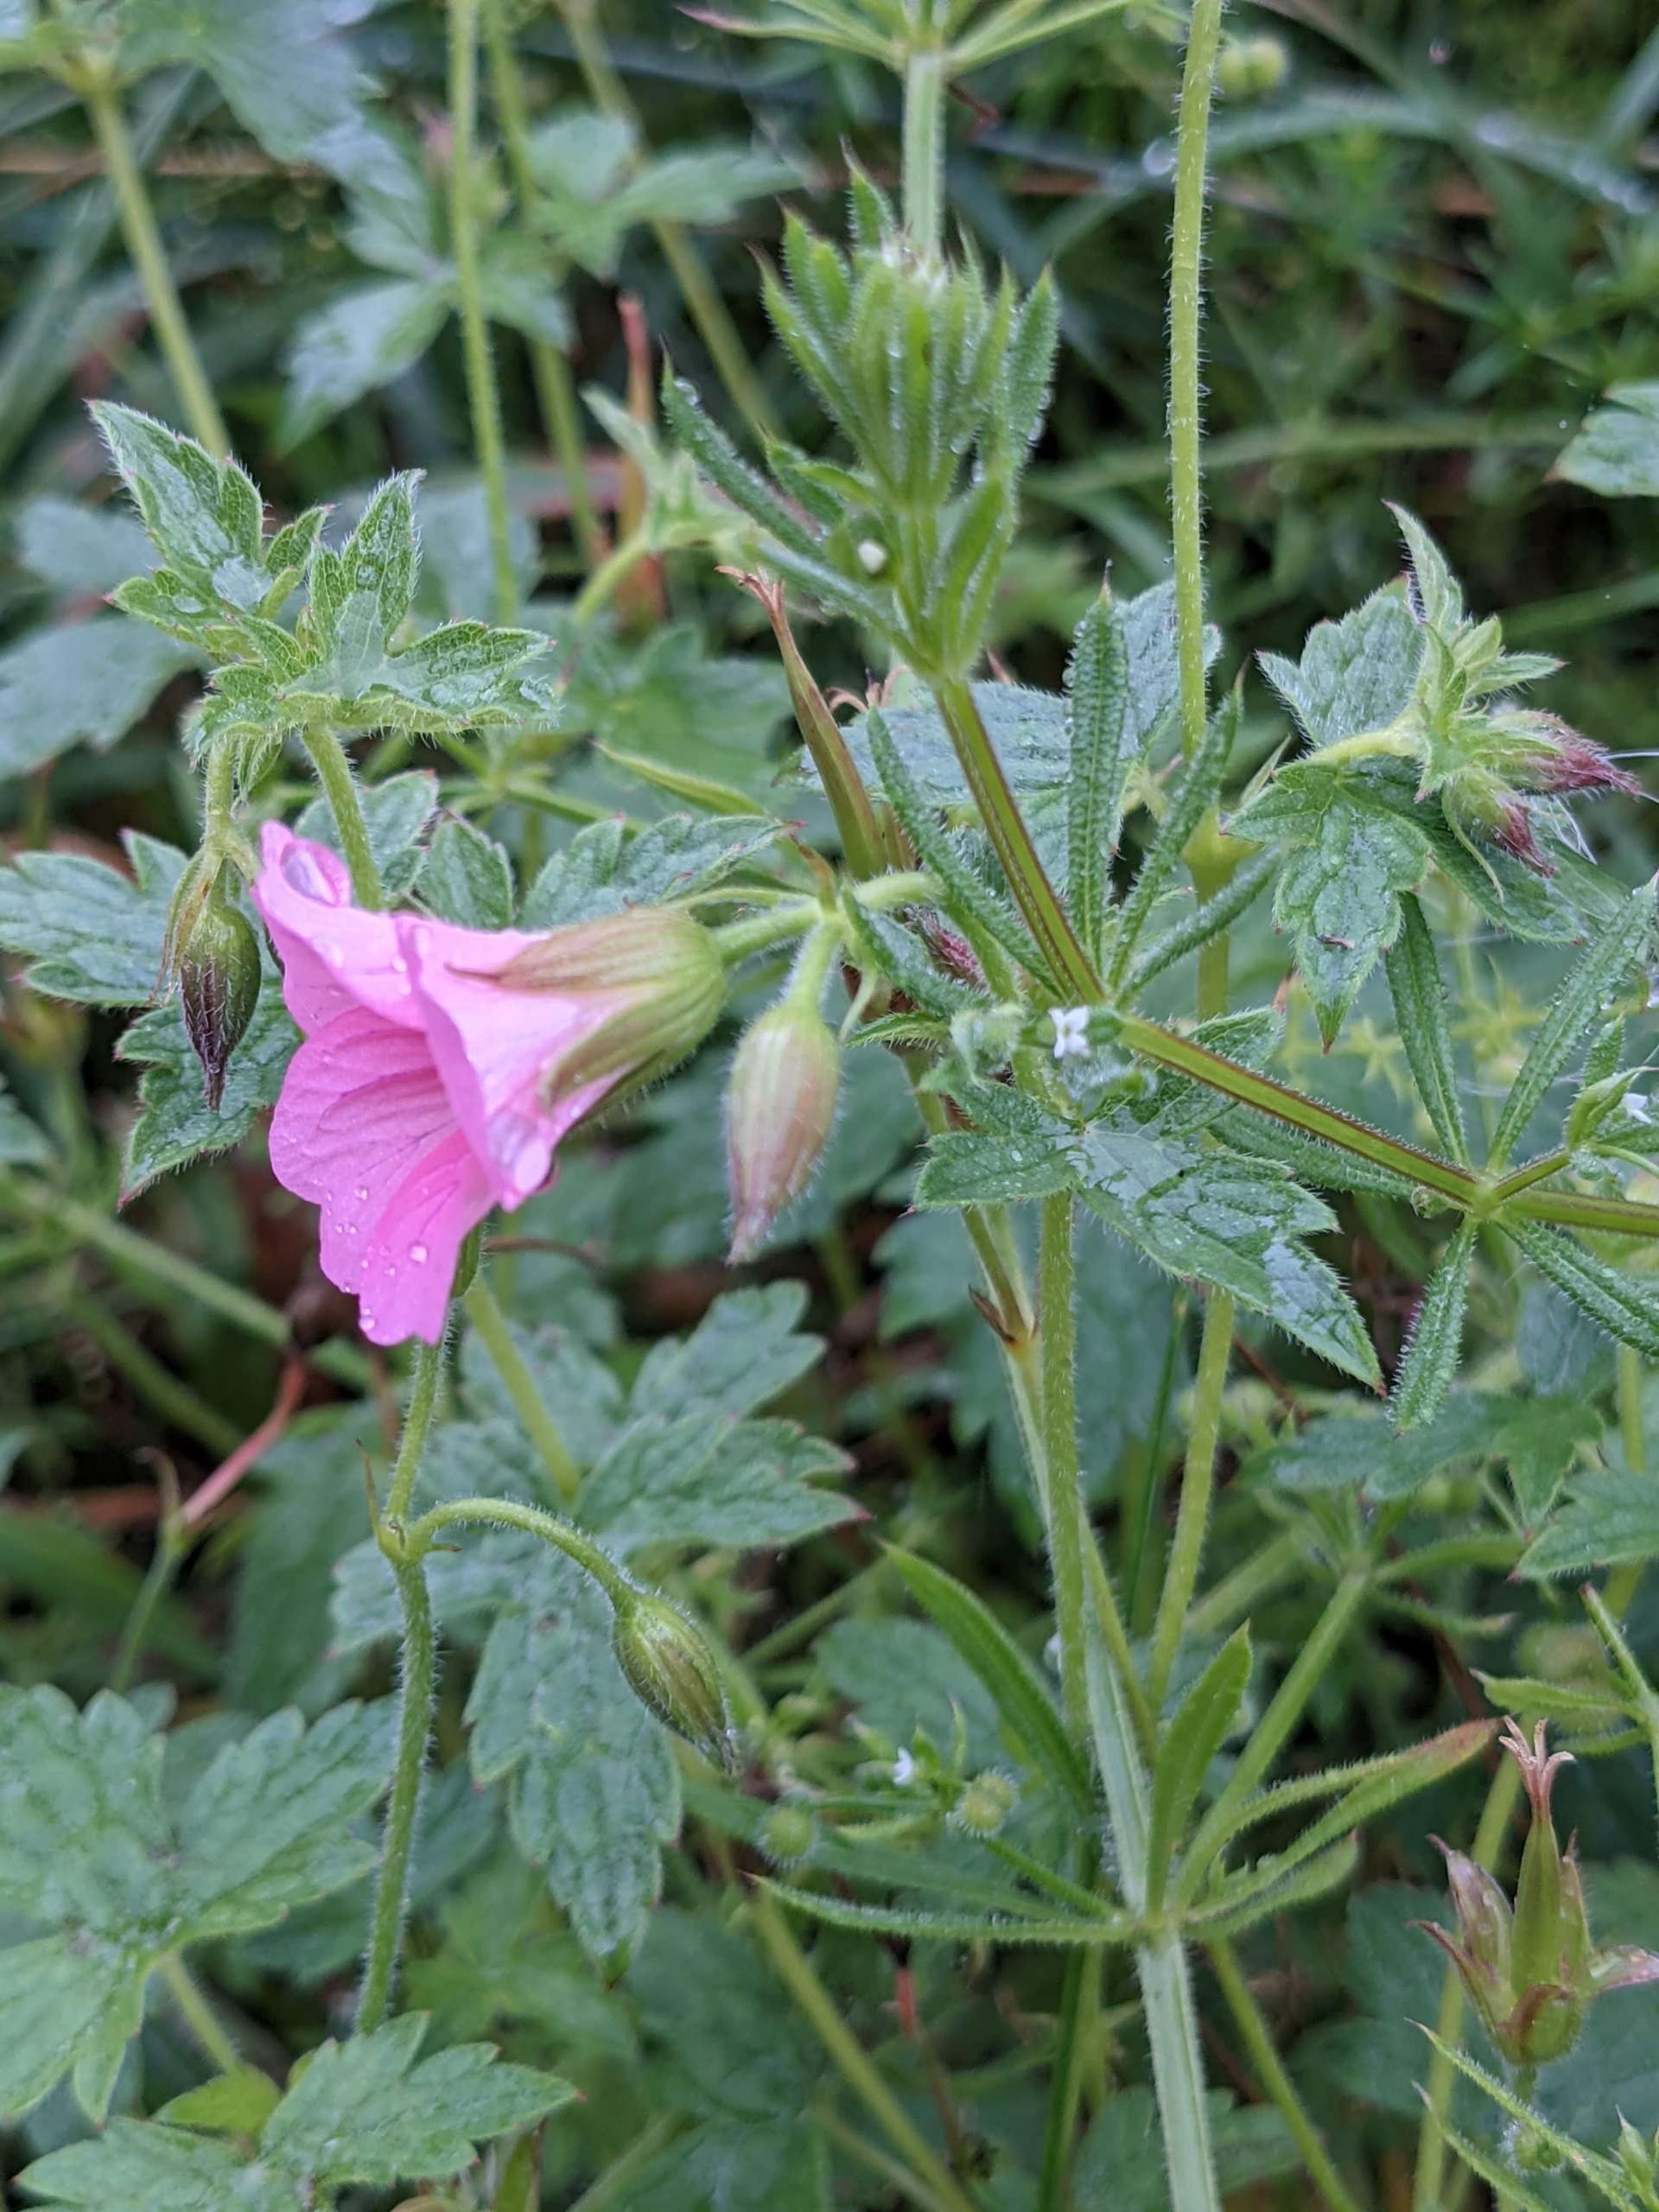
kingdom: Plantae
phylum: Tracheophyta
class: Magnoliopsida
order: Geraniales
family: Geraniaceae
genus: Geranium
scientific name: Geranium oxonianum
